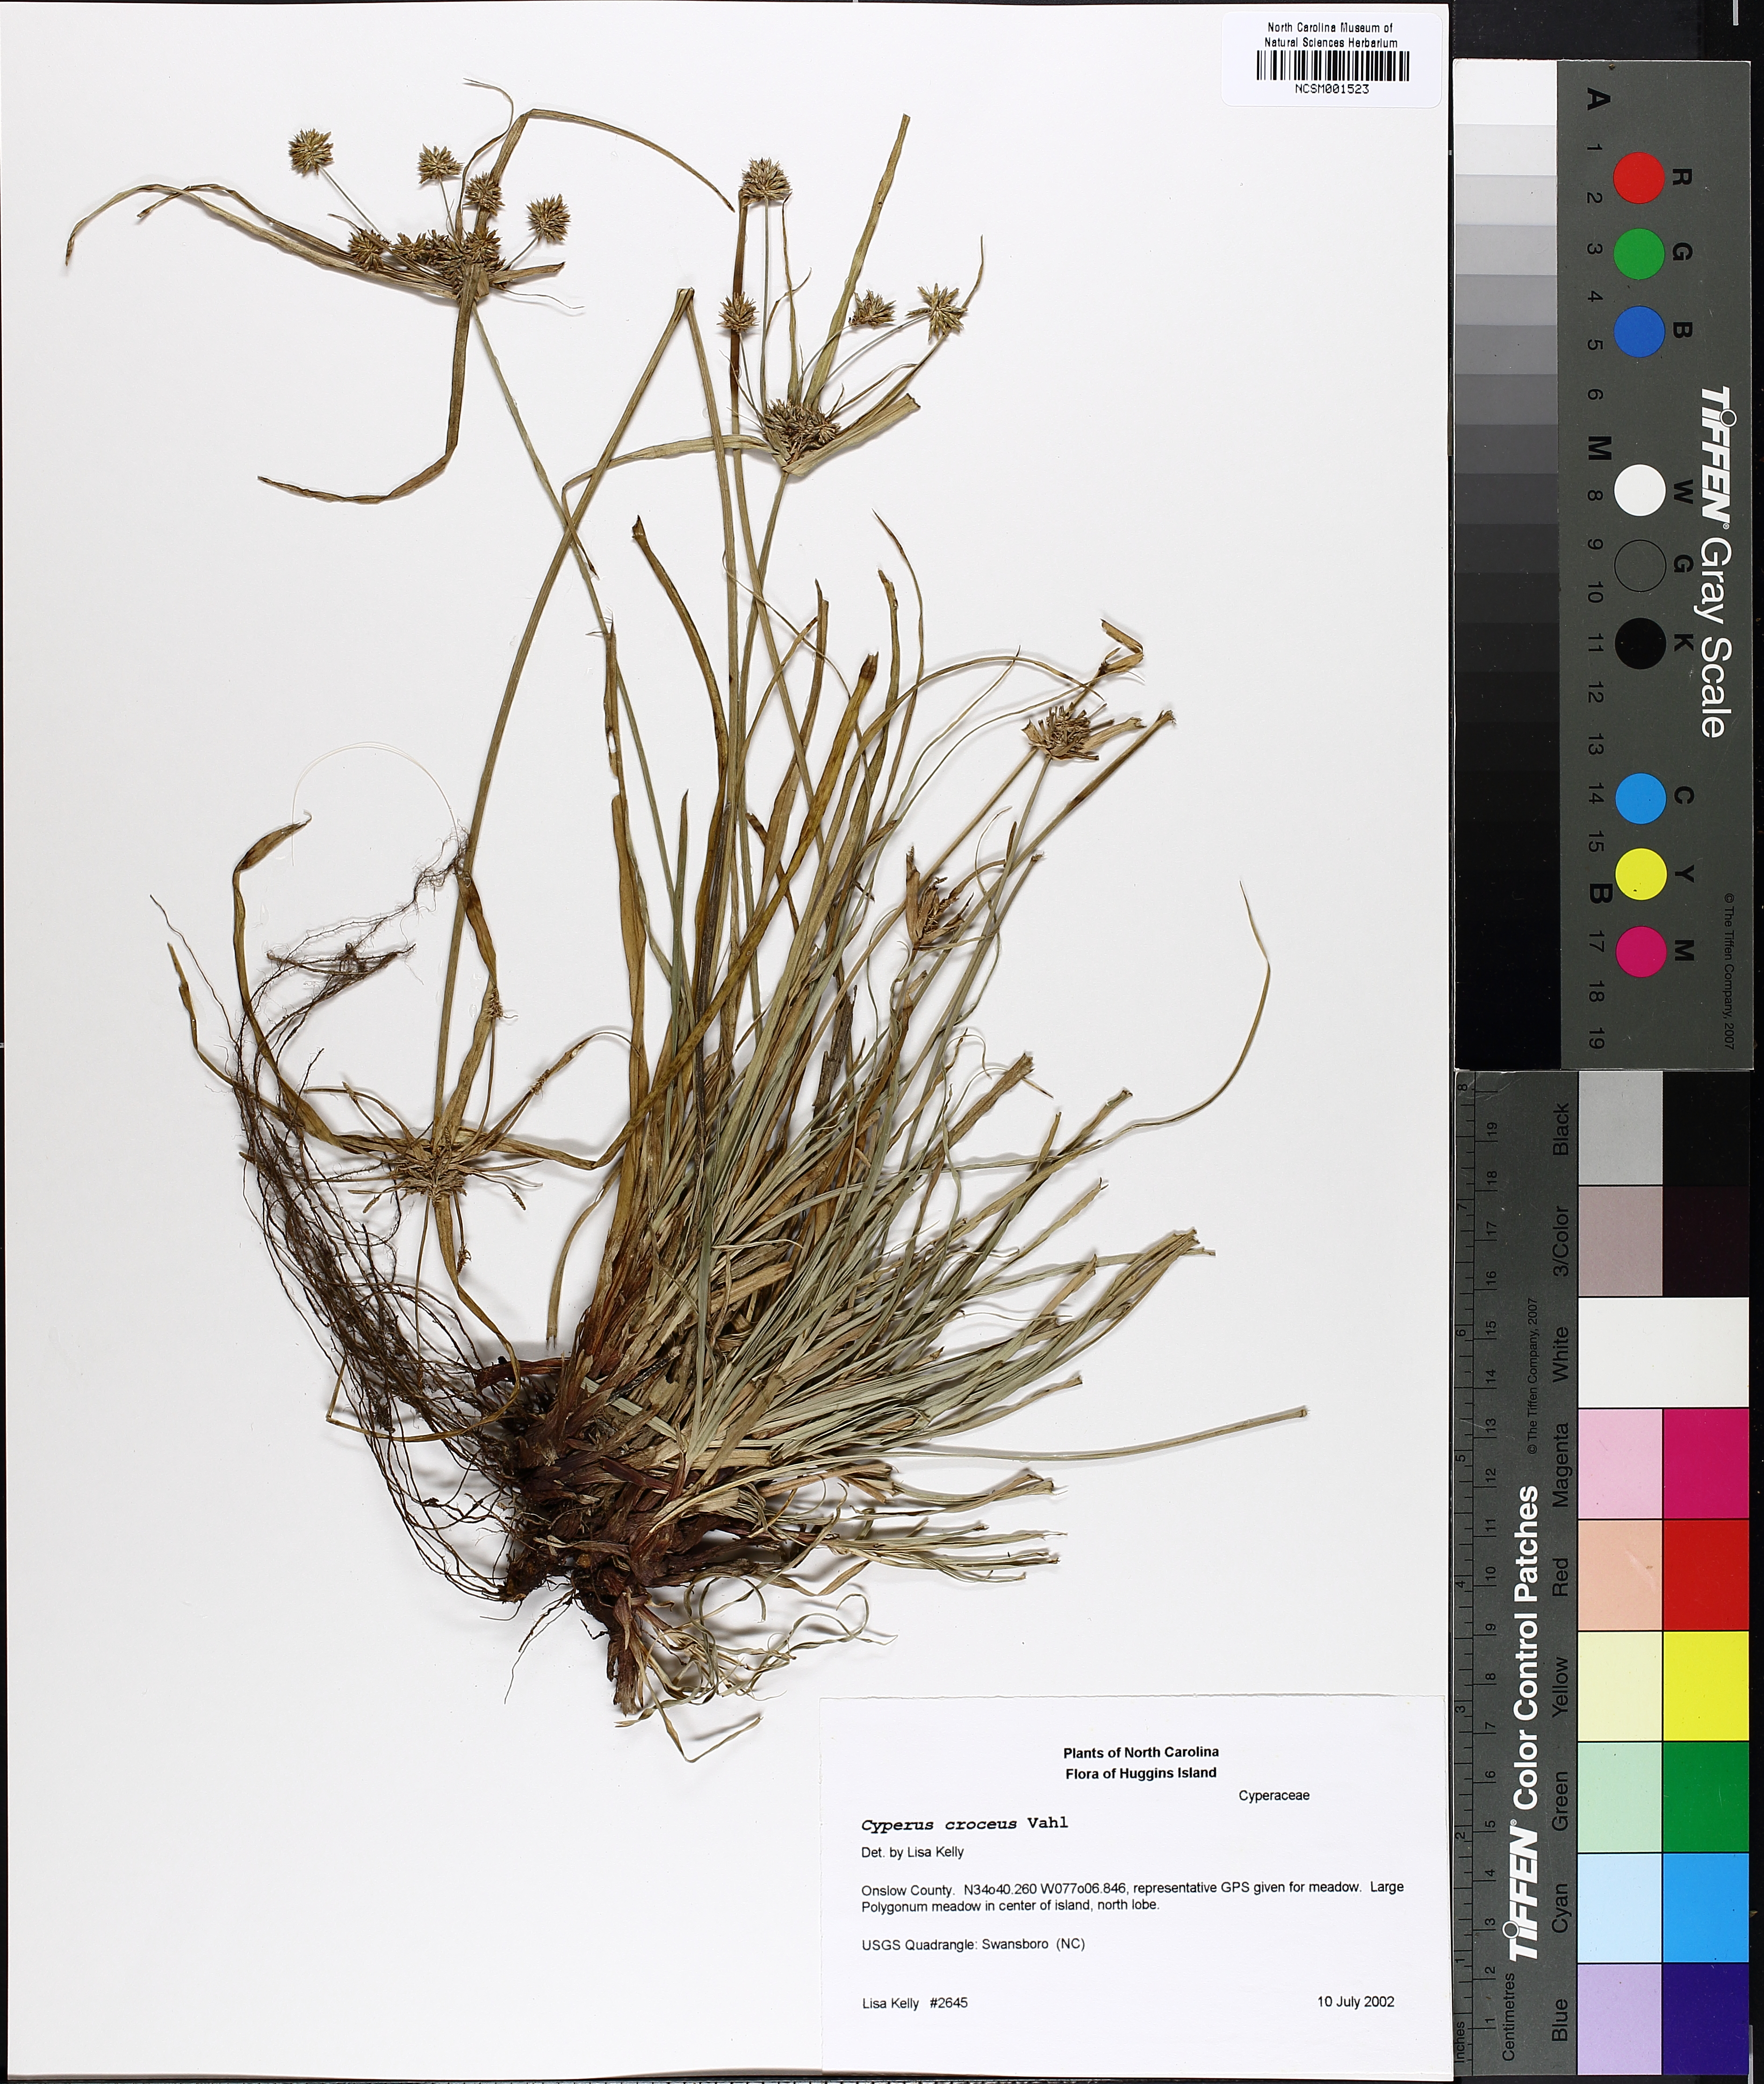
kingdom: Plantae
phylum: Tracheophyta
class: Liliopsida
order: Poales
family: Cyperaceae
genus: Cyperus
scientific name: Cyperus croceus
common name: Baldwin's flatsedge
